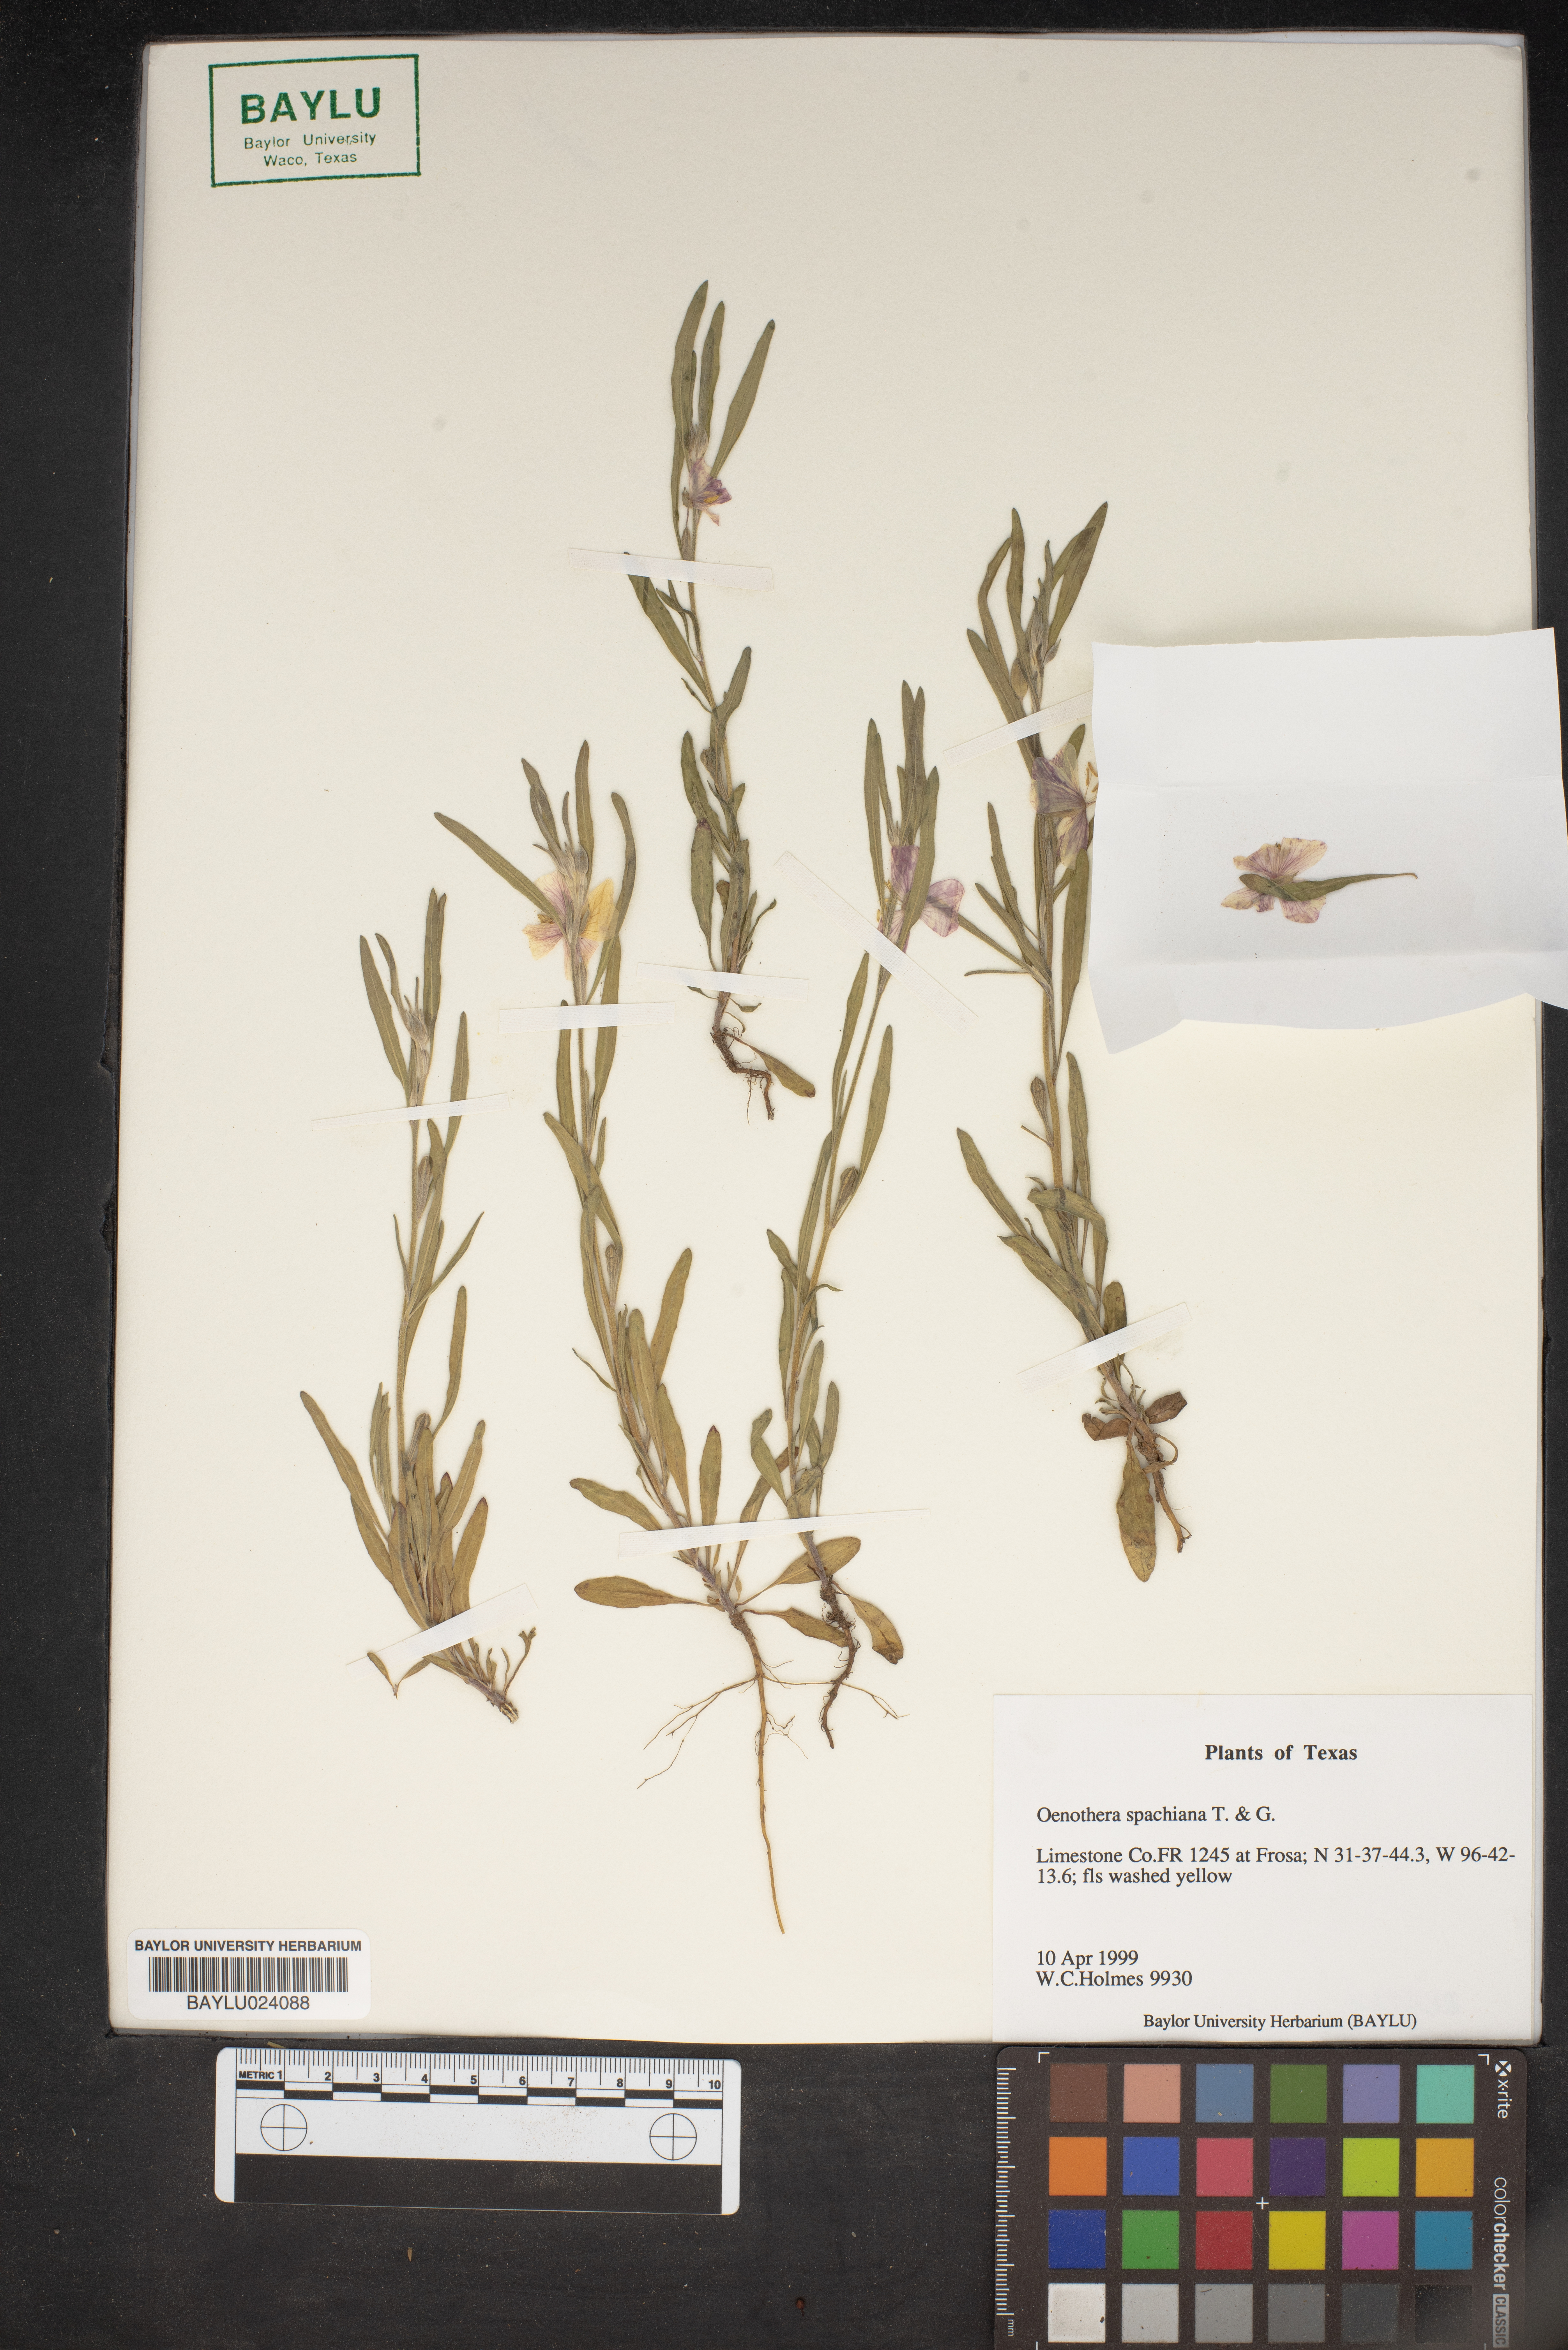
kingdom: Plantae
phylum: Tracheophyta
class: Magnoliopsida
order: Myrtales
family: Onagraceae
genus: Oenothera
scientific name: Oenothera spachiana
